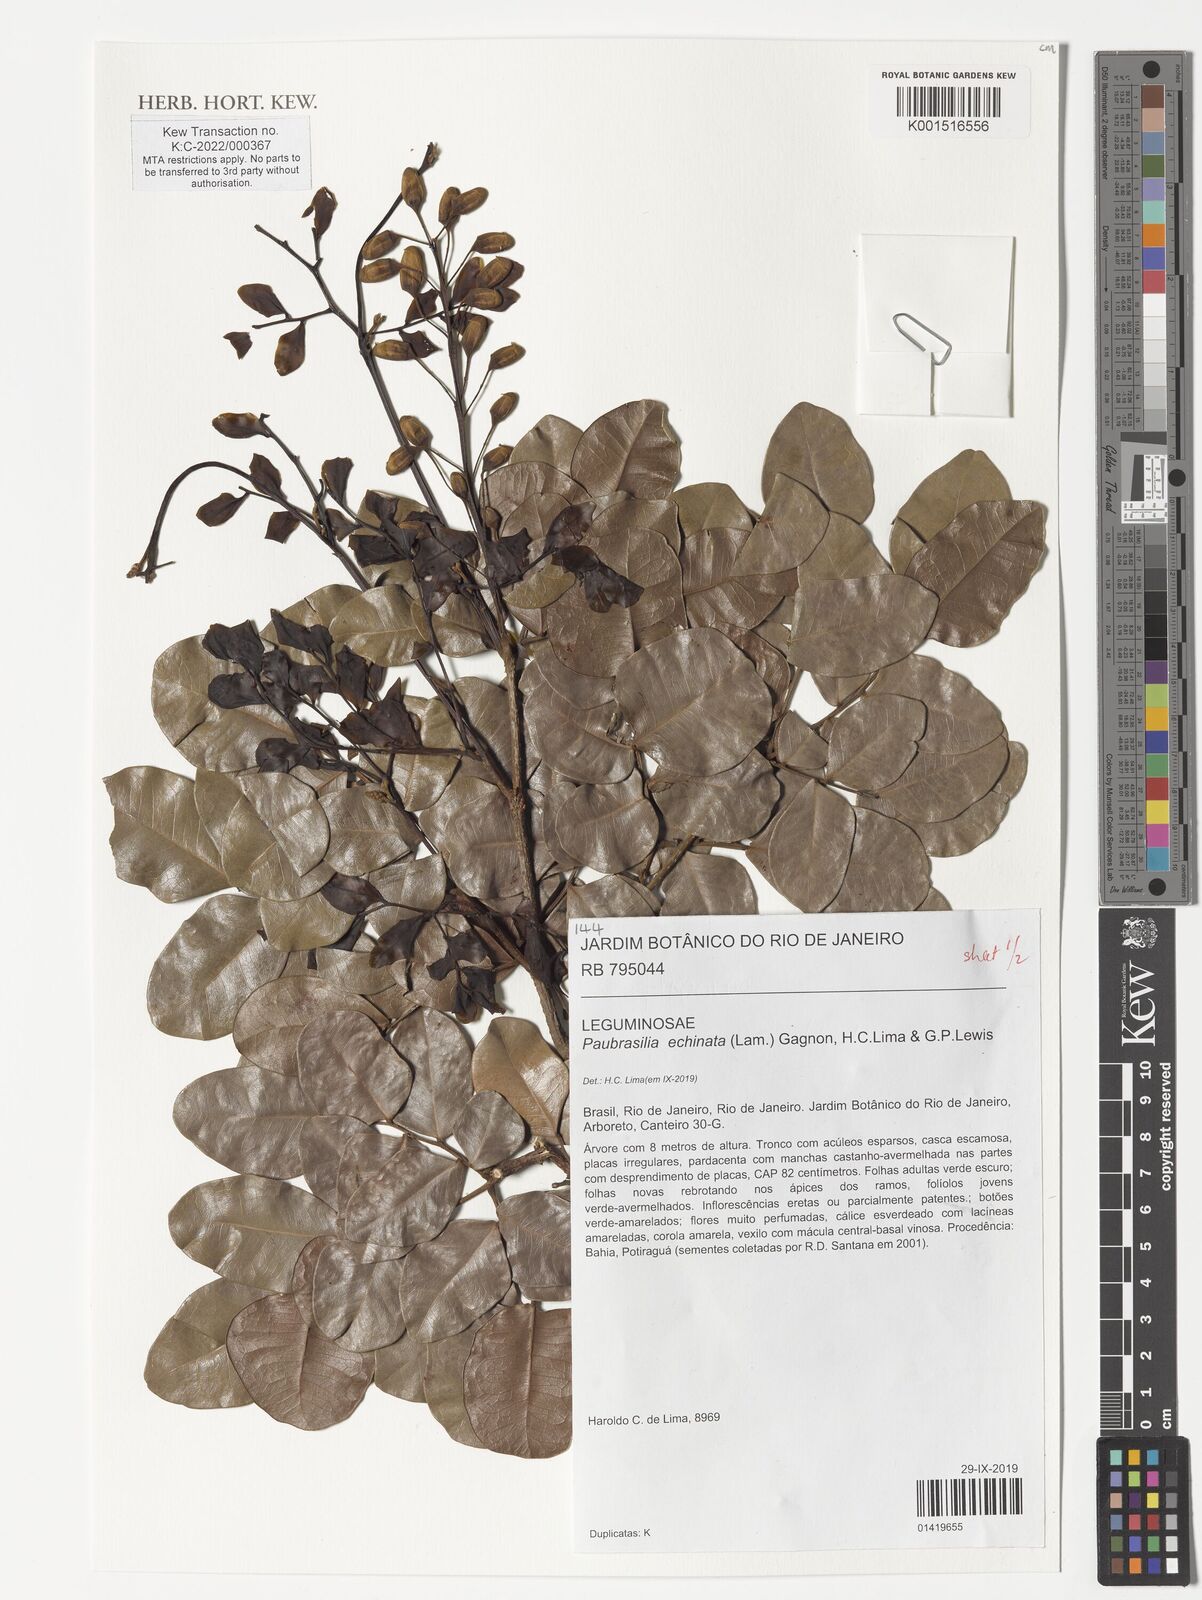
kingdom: Plantae
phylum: Tracheophyta
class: Magnoliopsida
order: Fabales
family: Fabaceae
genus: Paubrasilia
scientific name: Paubrasilia echinata
